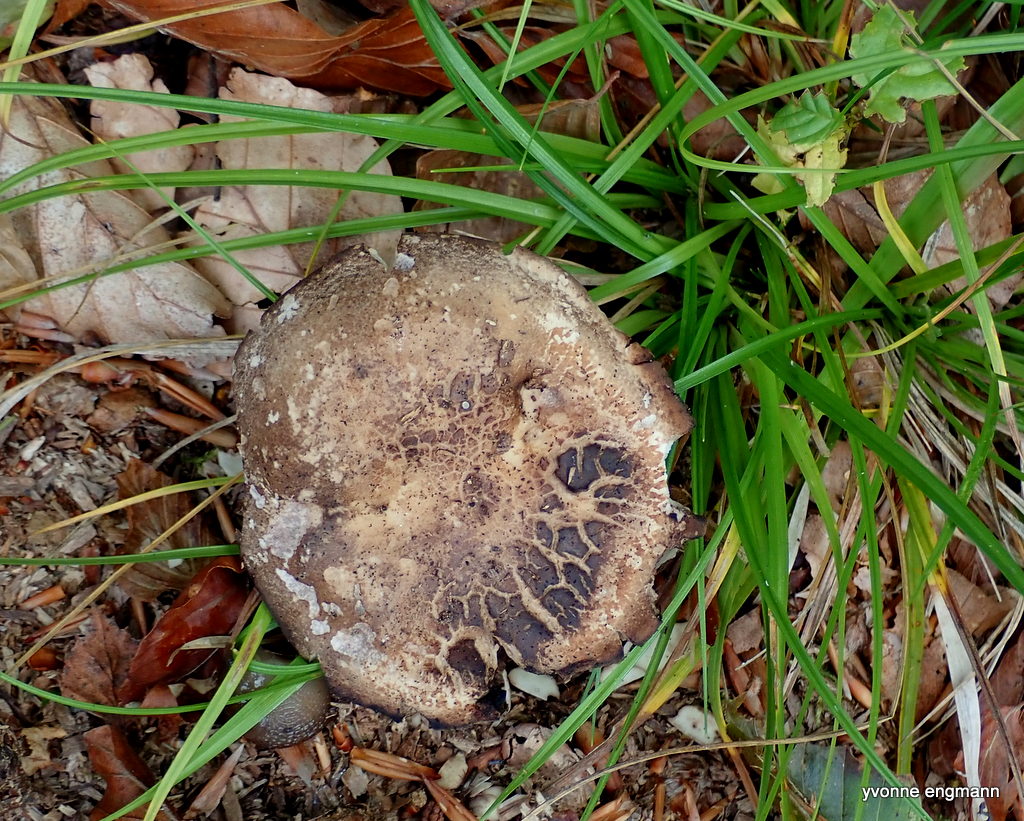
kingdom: Fungi
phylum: Basidiomycota
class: Agaricomycetes
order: Russulales
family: Russulaceae
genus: Russula
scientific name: Russula adusta
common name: sværtende skørhat
